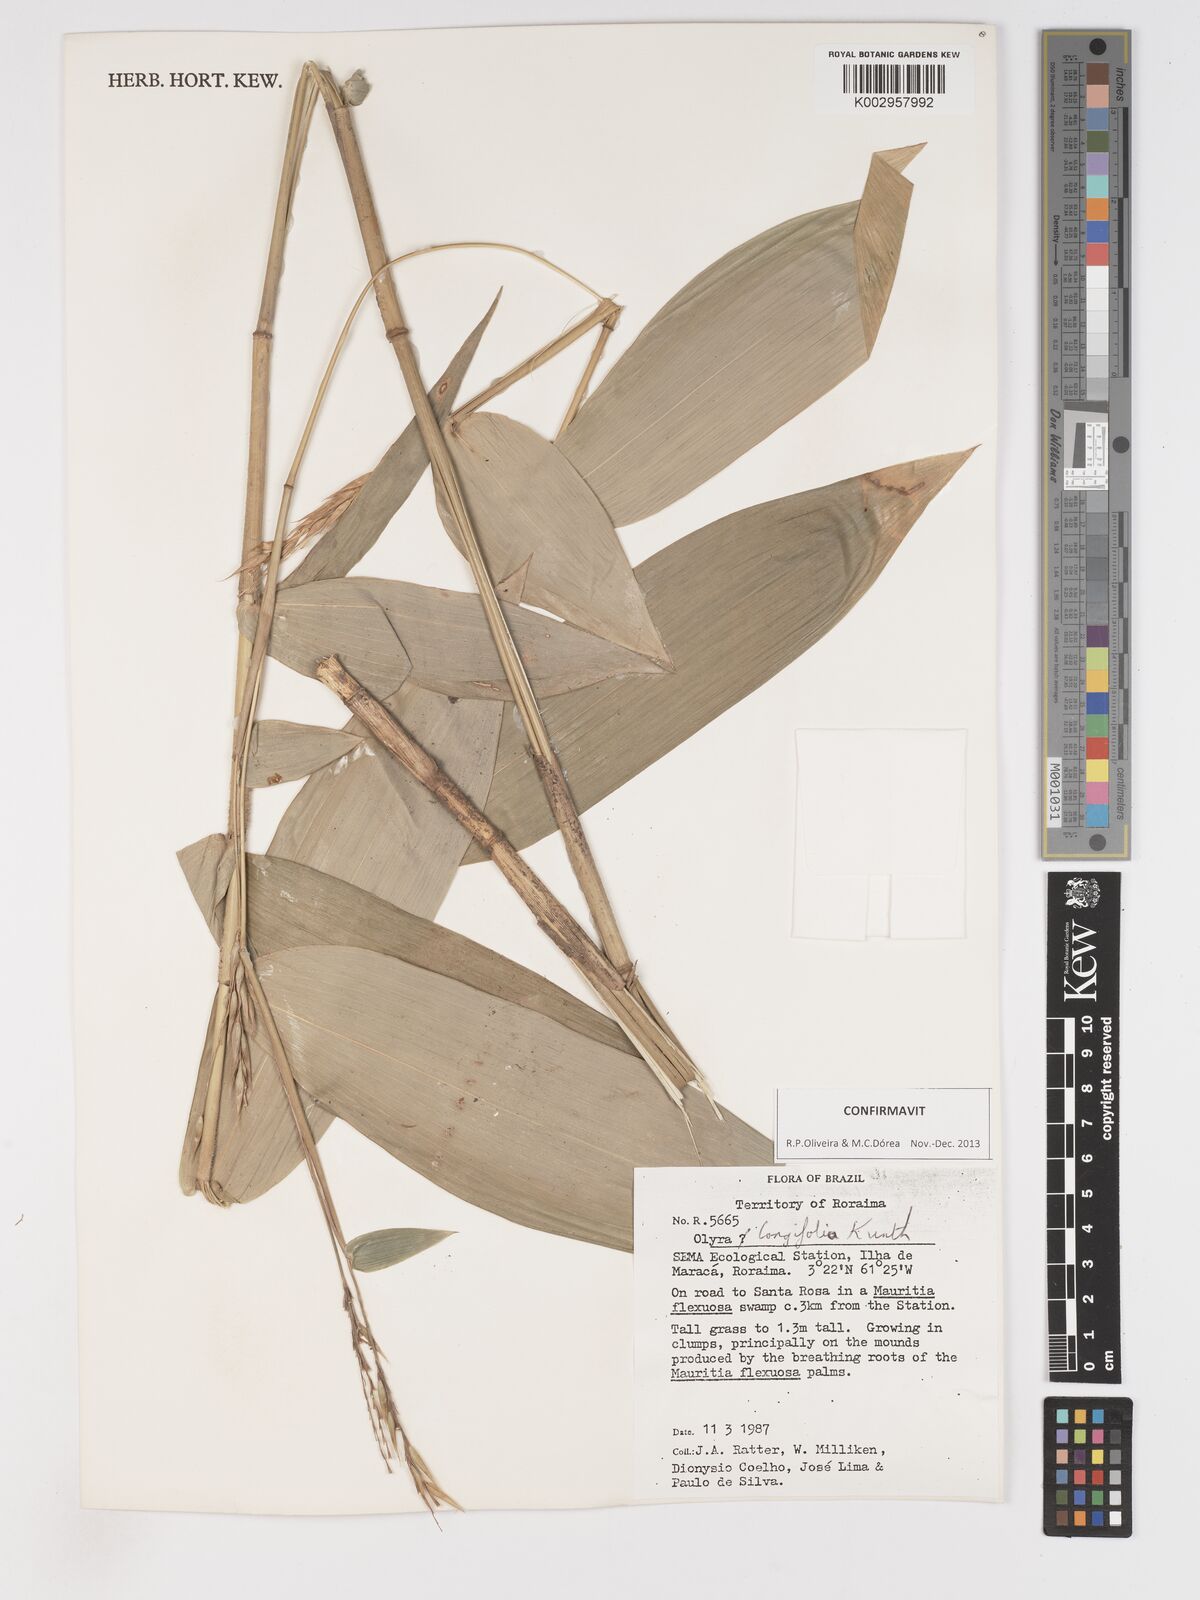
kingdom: Plantae
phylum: Tracheophyta
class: Liliopsida
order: Poales
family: Poaceae
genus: Olyra
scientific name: Olyra longifolia
